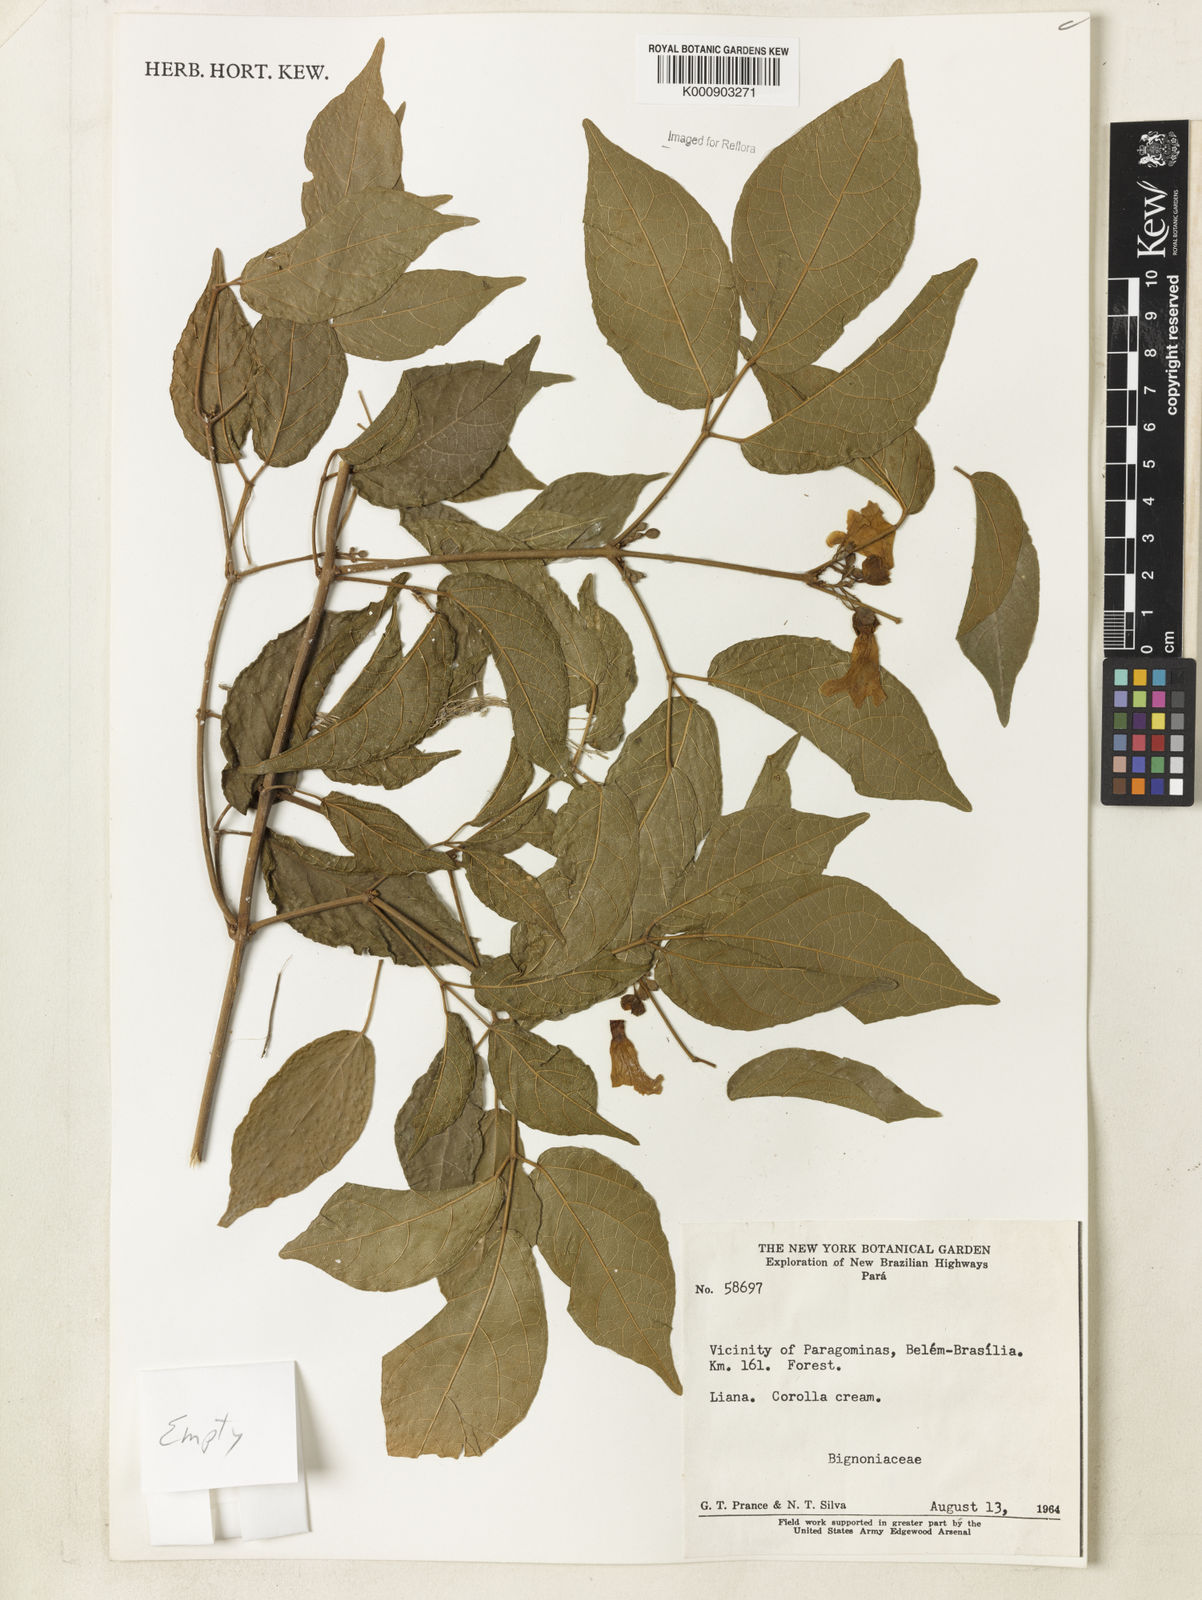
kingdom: Plantae
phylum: Tracheophyta
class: Magnoliopsida
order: Lamiales
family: Bignoniaceae
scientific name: Bignoniaceae
